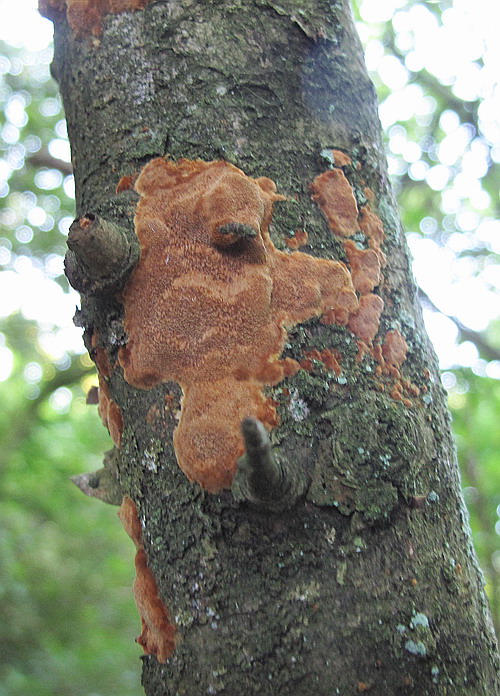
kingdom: Fungi
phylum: Basidiomycota
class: Agaricomycetes
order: Hymenochaetales
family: Hymenochaetaceae
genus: Fuscoporia
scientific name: Fuscoporia ferrea
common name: skorpe-ildporesvamp
